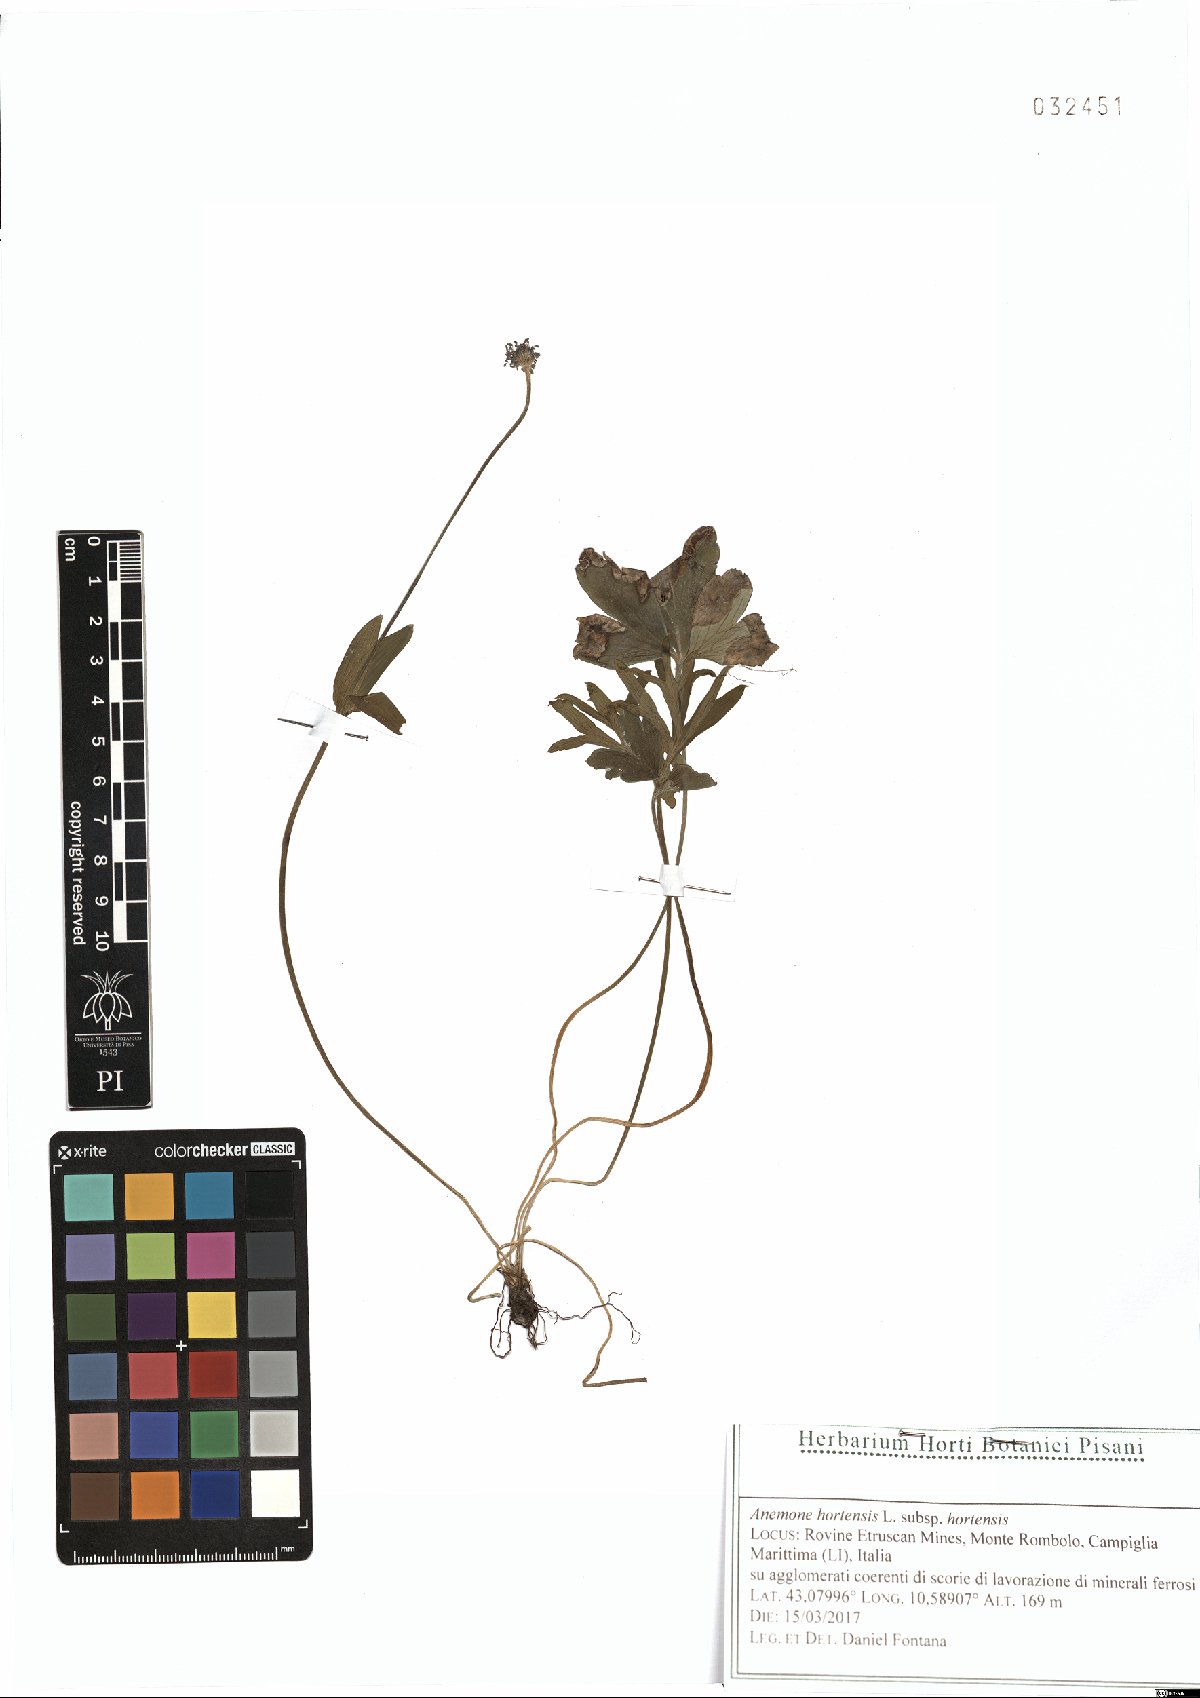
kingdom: Plantae
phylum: Tracheophyta
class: Magnoliopsida
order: Ranunculales
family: Ranunculaceae
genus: Anemone
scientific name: Anemone hortensis
